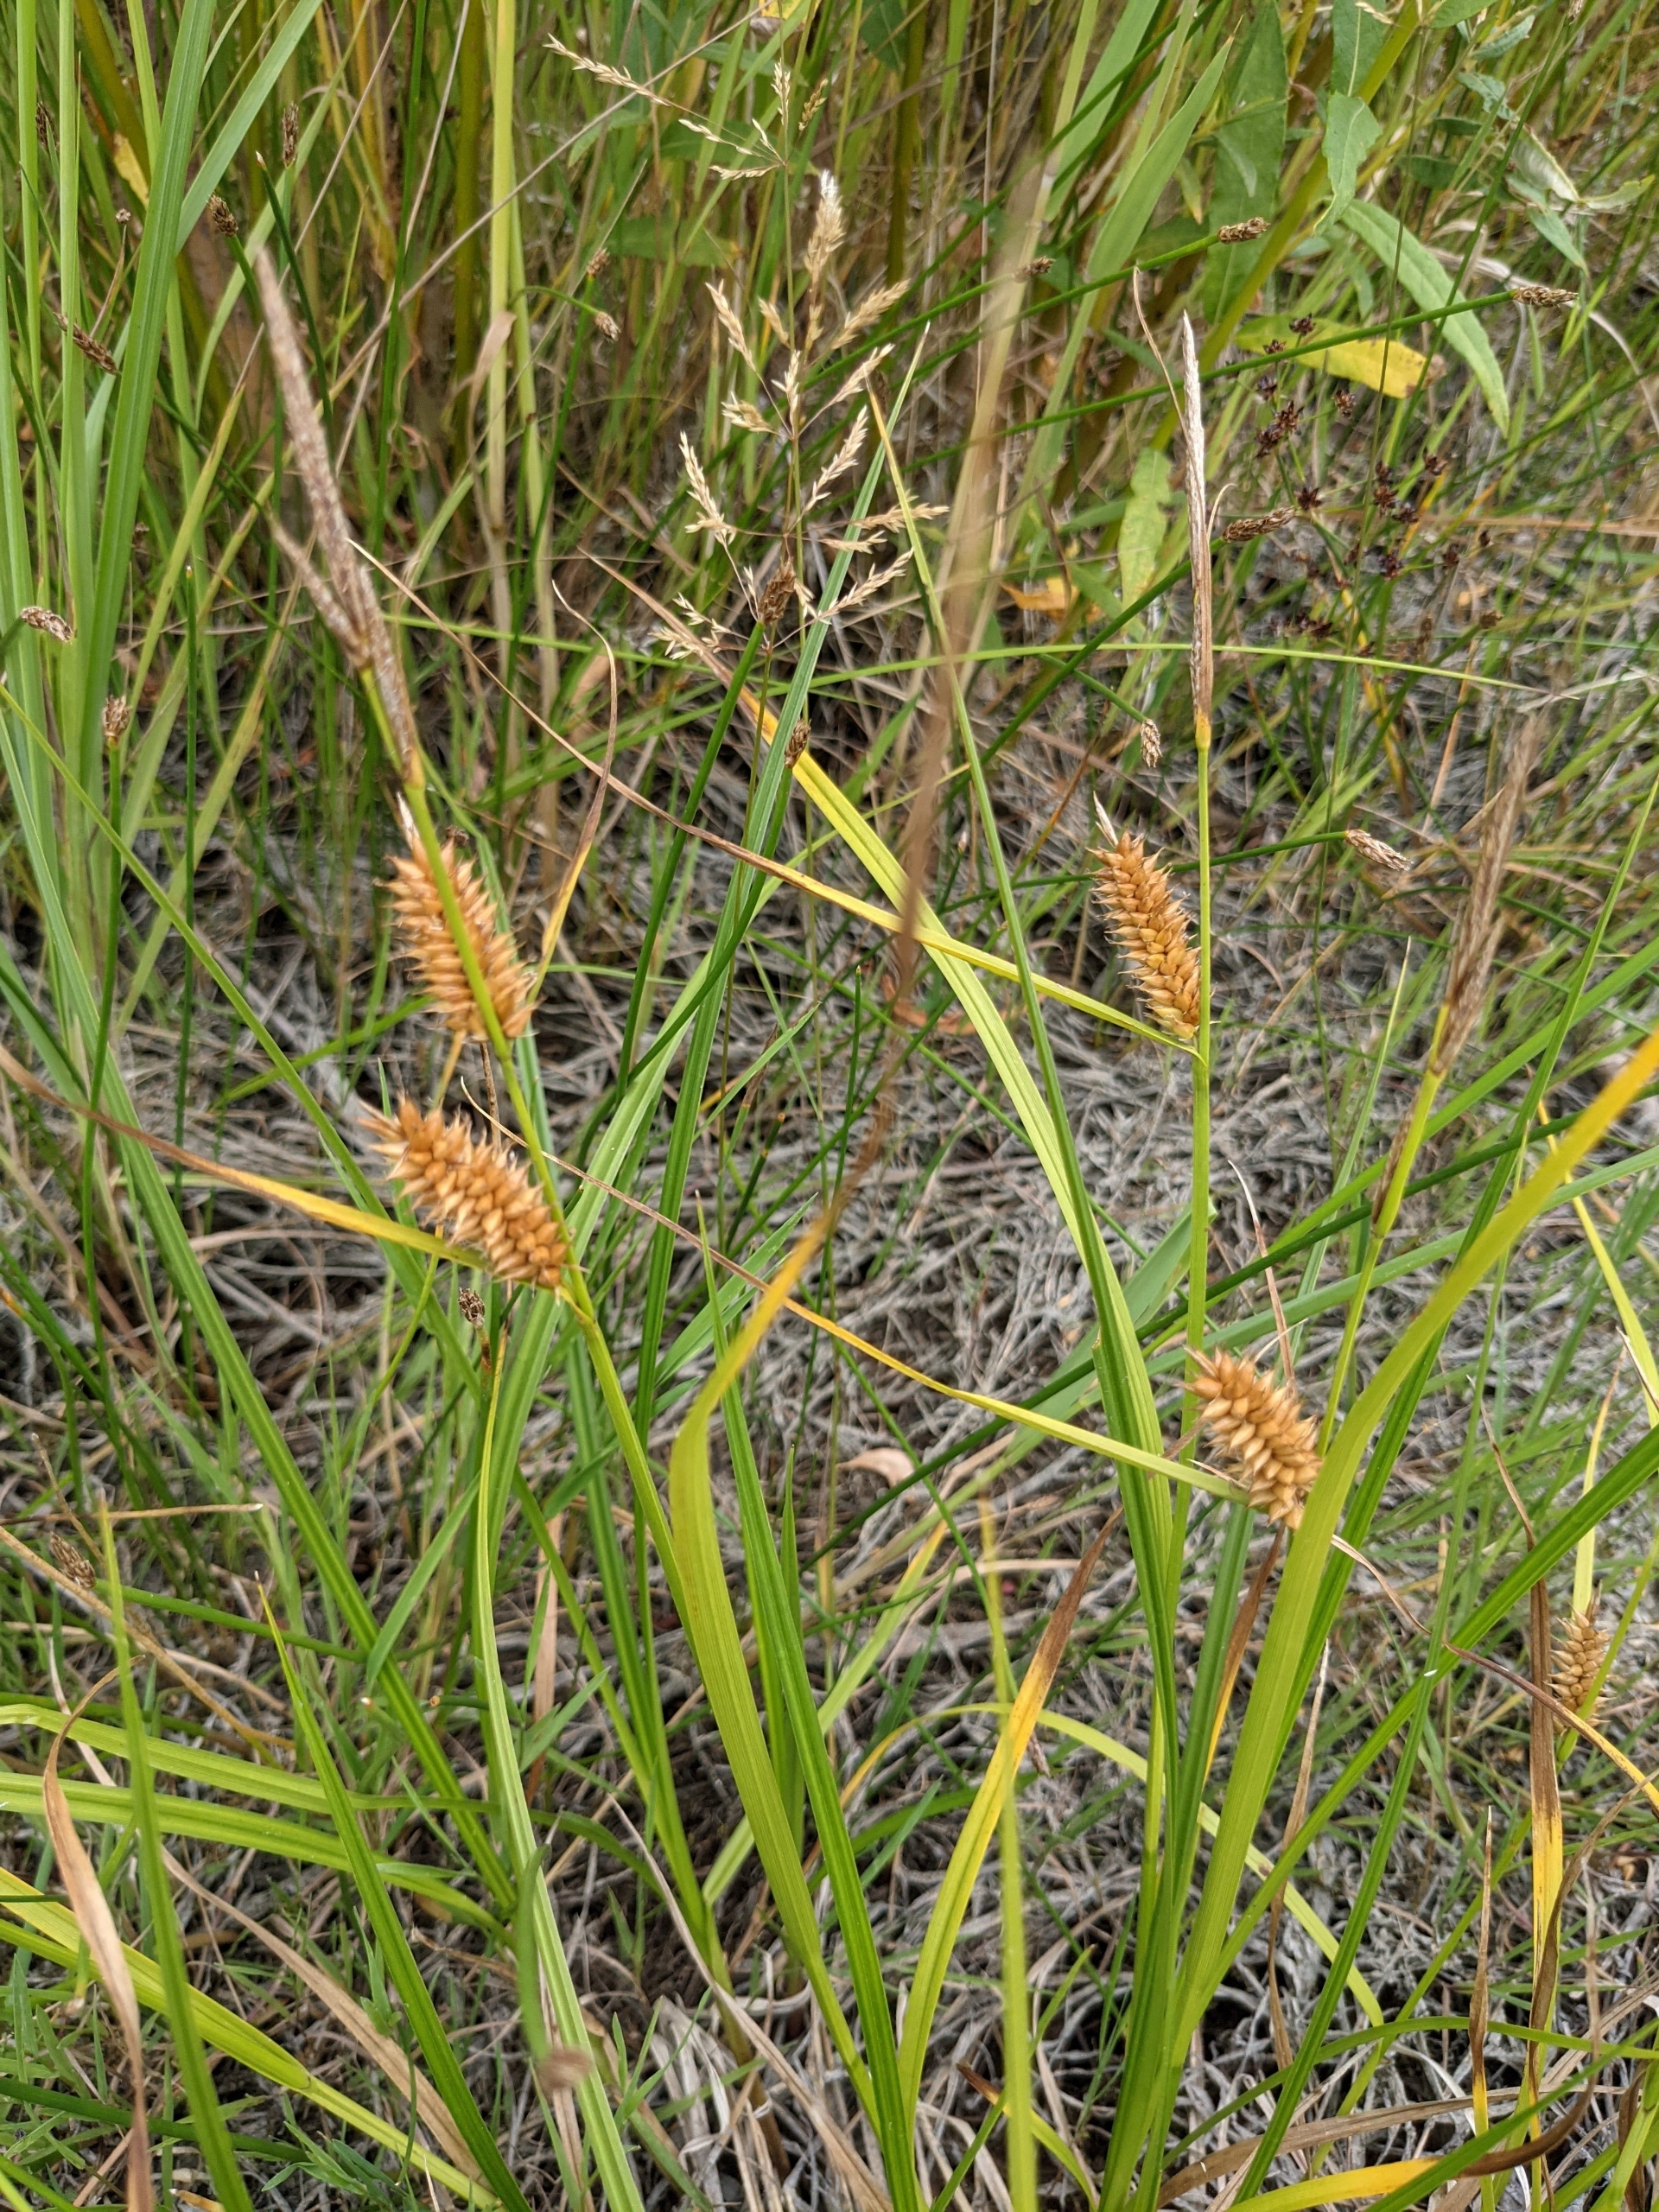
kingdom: Plantae
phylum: Tracheophyta
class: Liliopsida
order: Poales
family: Cyperaceae
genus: Carex
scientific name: Carex vesicaria
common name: Blære-star
